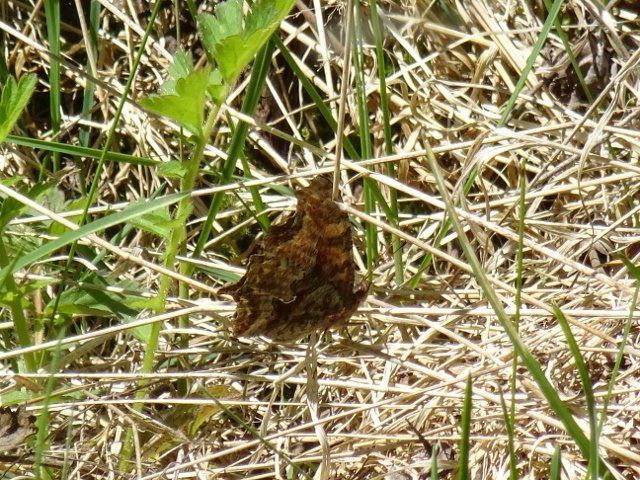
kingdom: Animalia
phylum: Arthropoda
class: Insecta
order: Lepidoptera
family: Nymphalidae
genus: Polygonia
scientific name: Polygonia comma
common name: Eastern Comma
